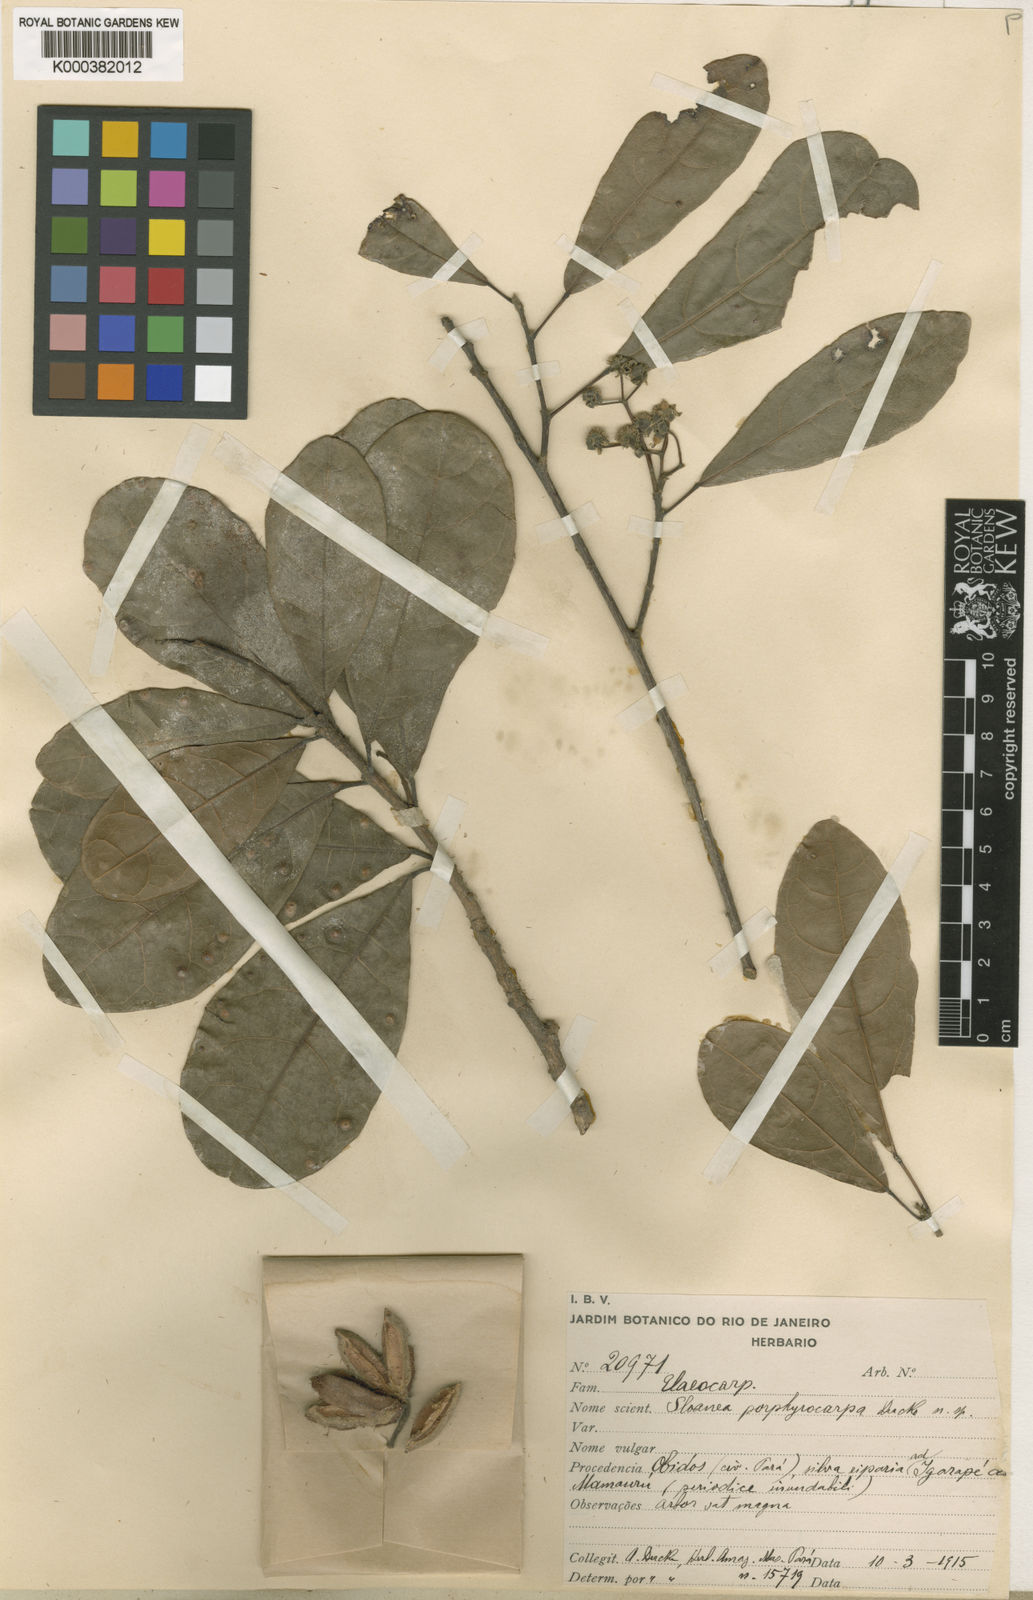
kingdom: Plantae
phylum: Tracheophyta
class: Magnoliopsida
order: Oxalidales
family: Elaeocarpaceae
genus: Sloanea
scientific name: Sloanea terniflora
